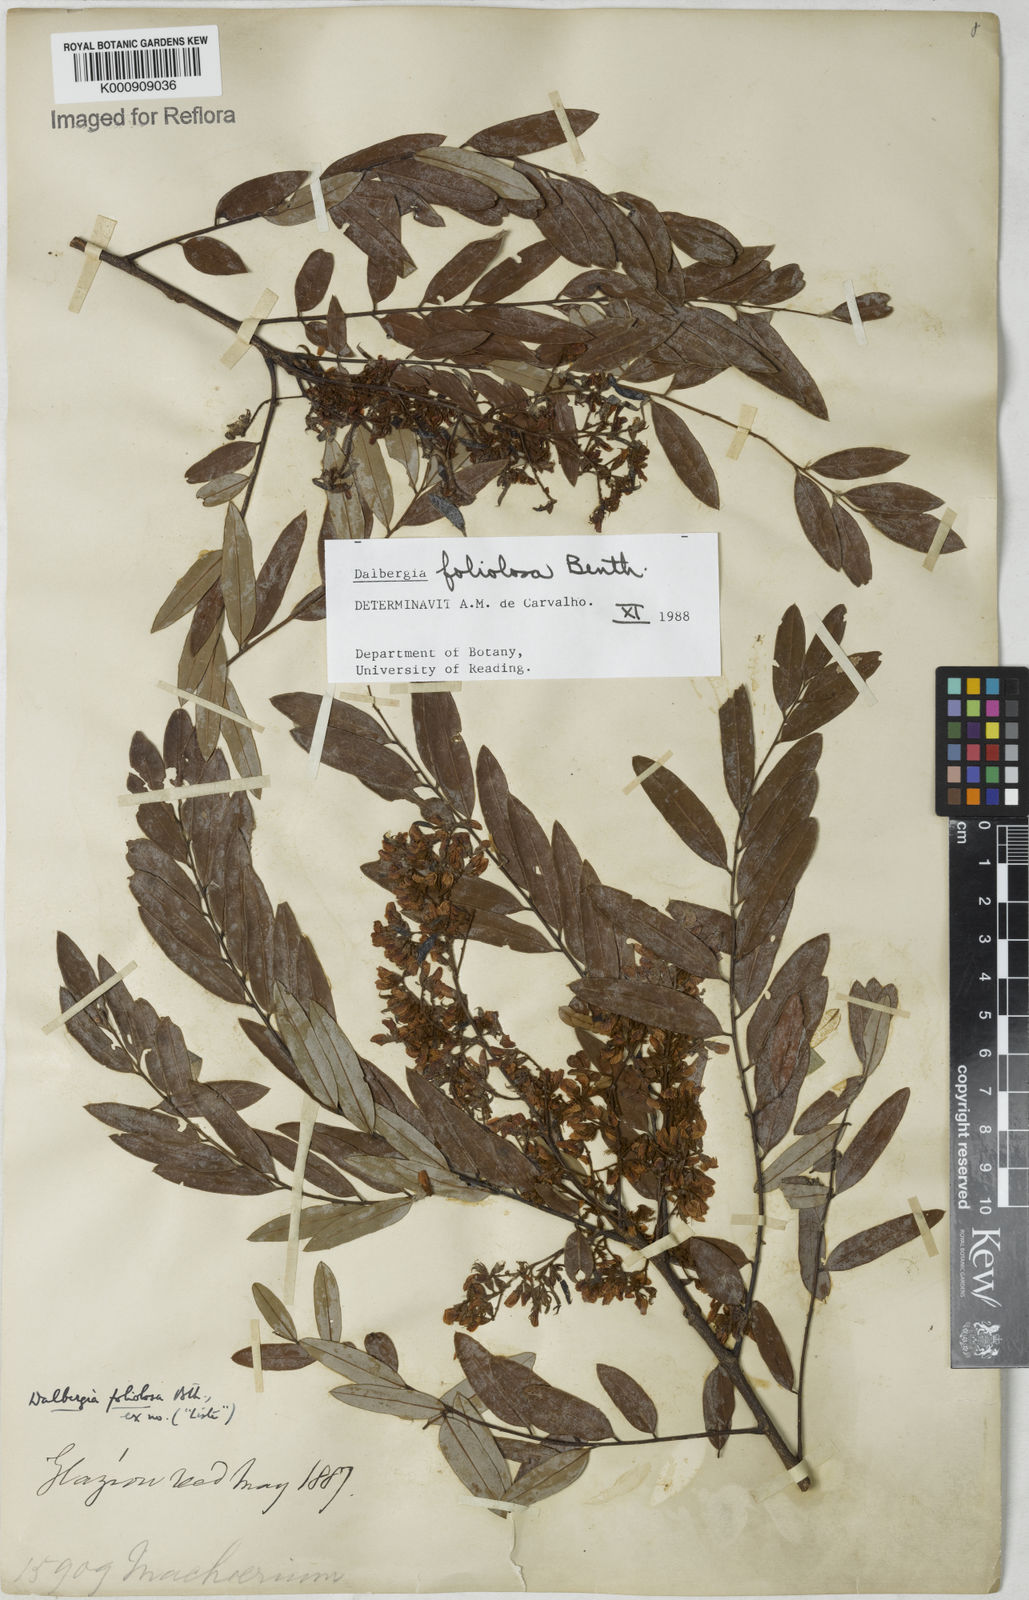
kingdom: Plantae
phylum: Tracheophyta
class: Magnoliopsida
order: Fabales
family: Fabaceae
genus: Dalbergia
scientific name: Dalbergia foliolosa
